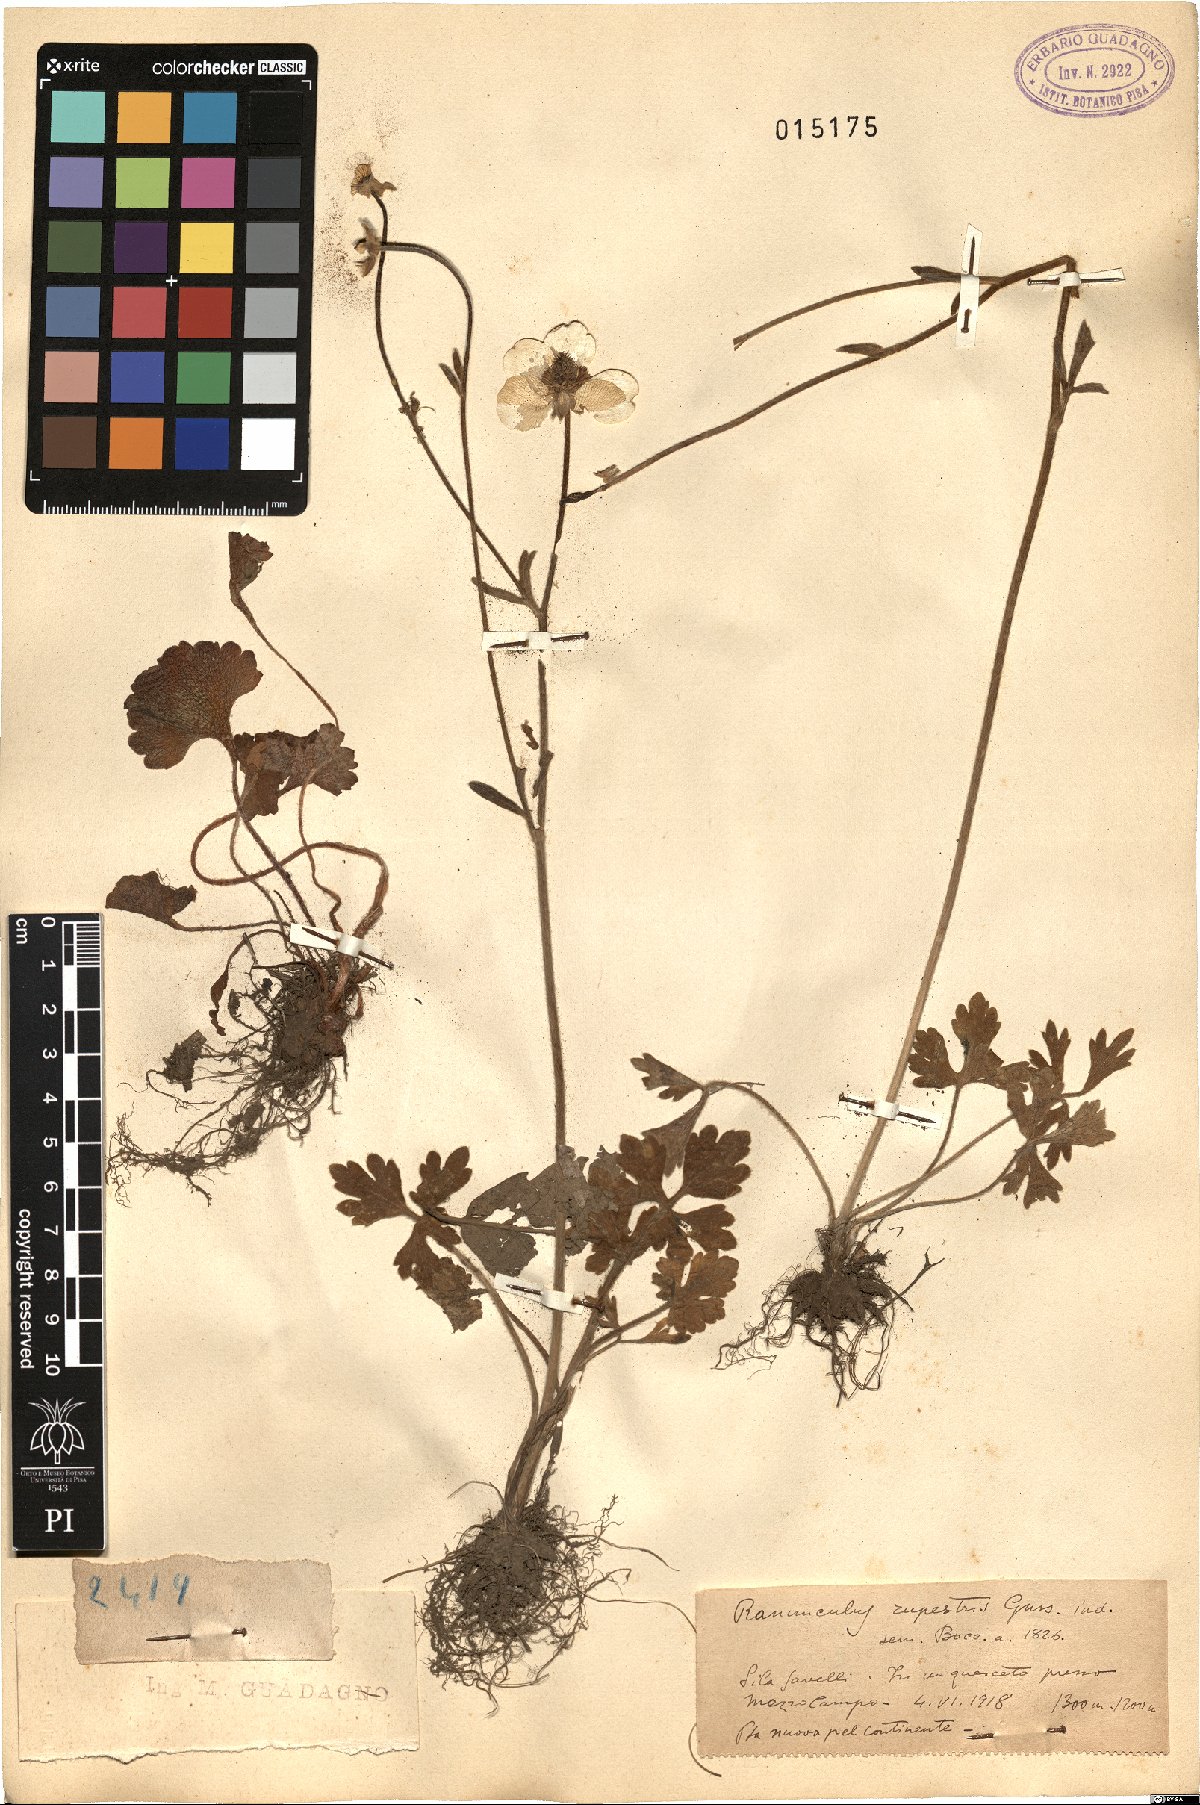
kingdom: Plantae
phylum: Tracheophyta
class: Magnoliopsida
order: Ranunculales
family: Ranunculaceae
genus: Ranunculus
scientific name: Ranunculus spicatus
